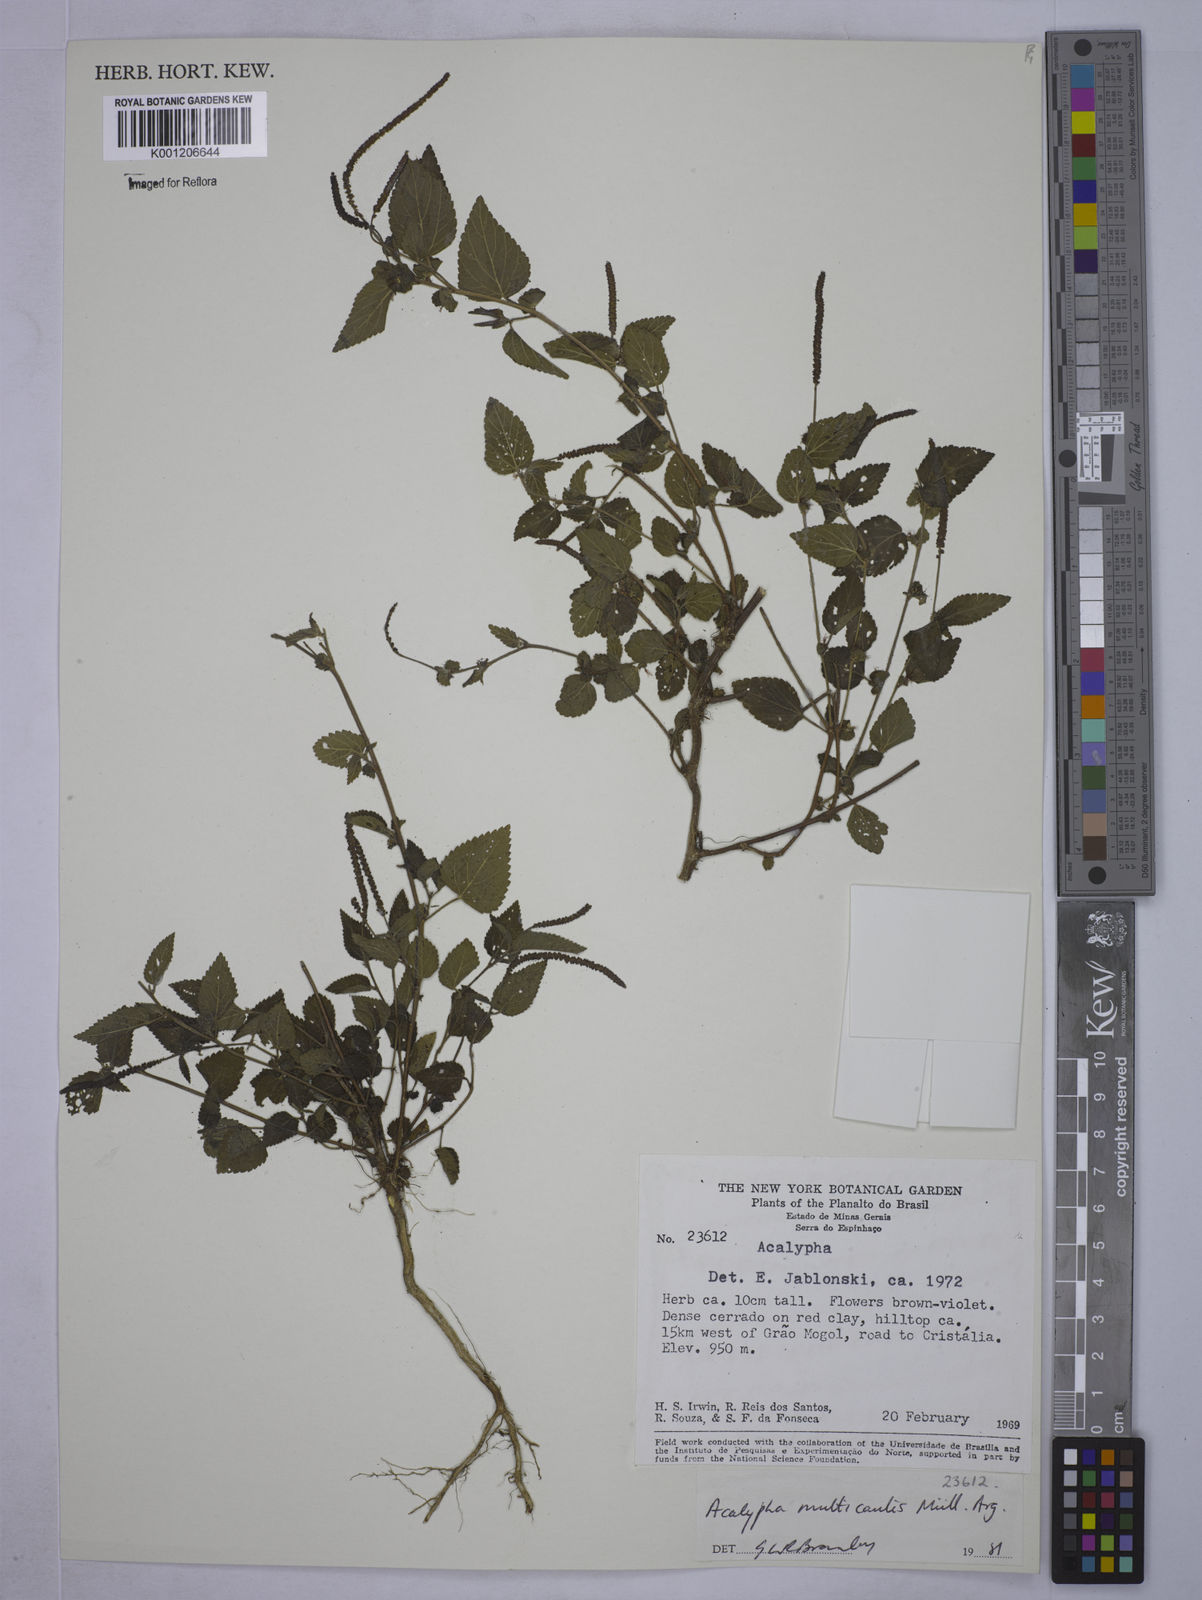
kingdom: Plantae
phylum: Tracheophyta
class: Magnoliopsida
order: Malpighiales
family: Euphorbiaceae
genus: Acalypha
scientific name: Acalypha
